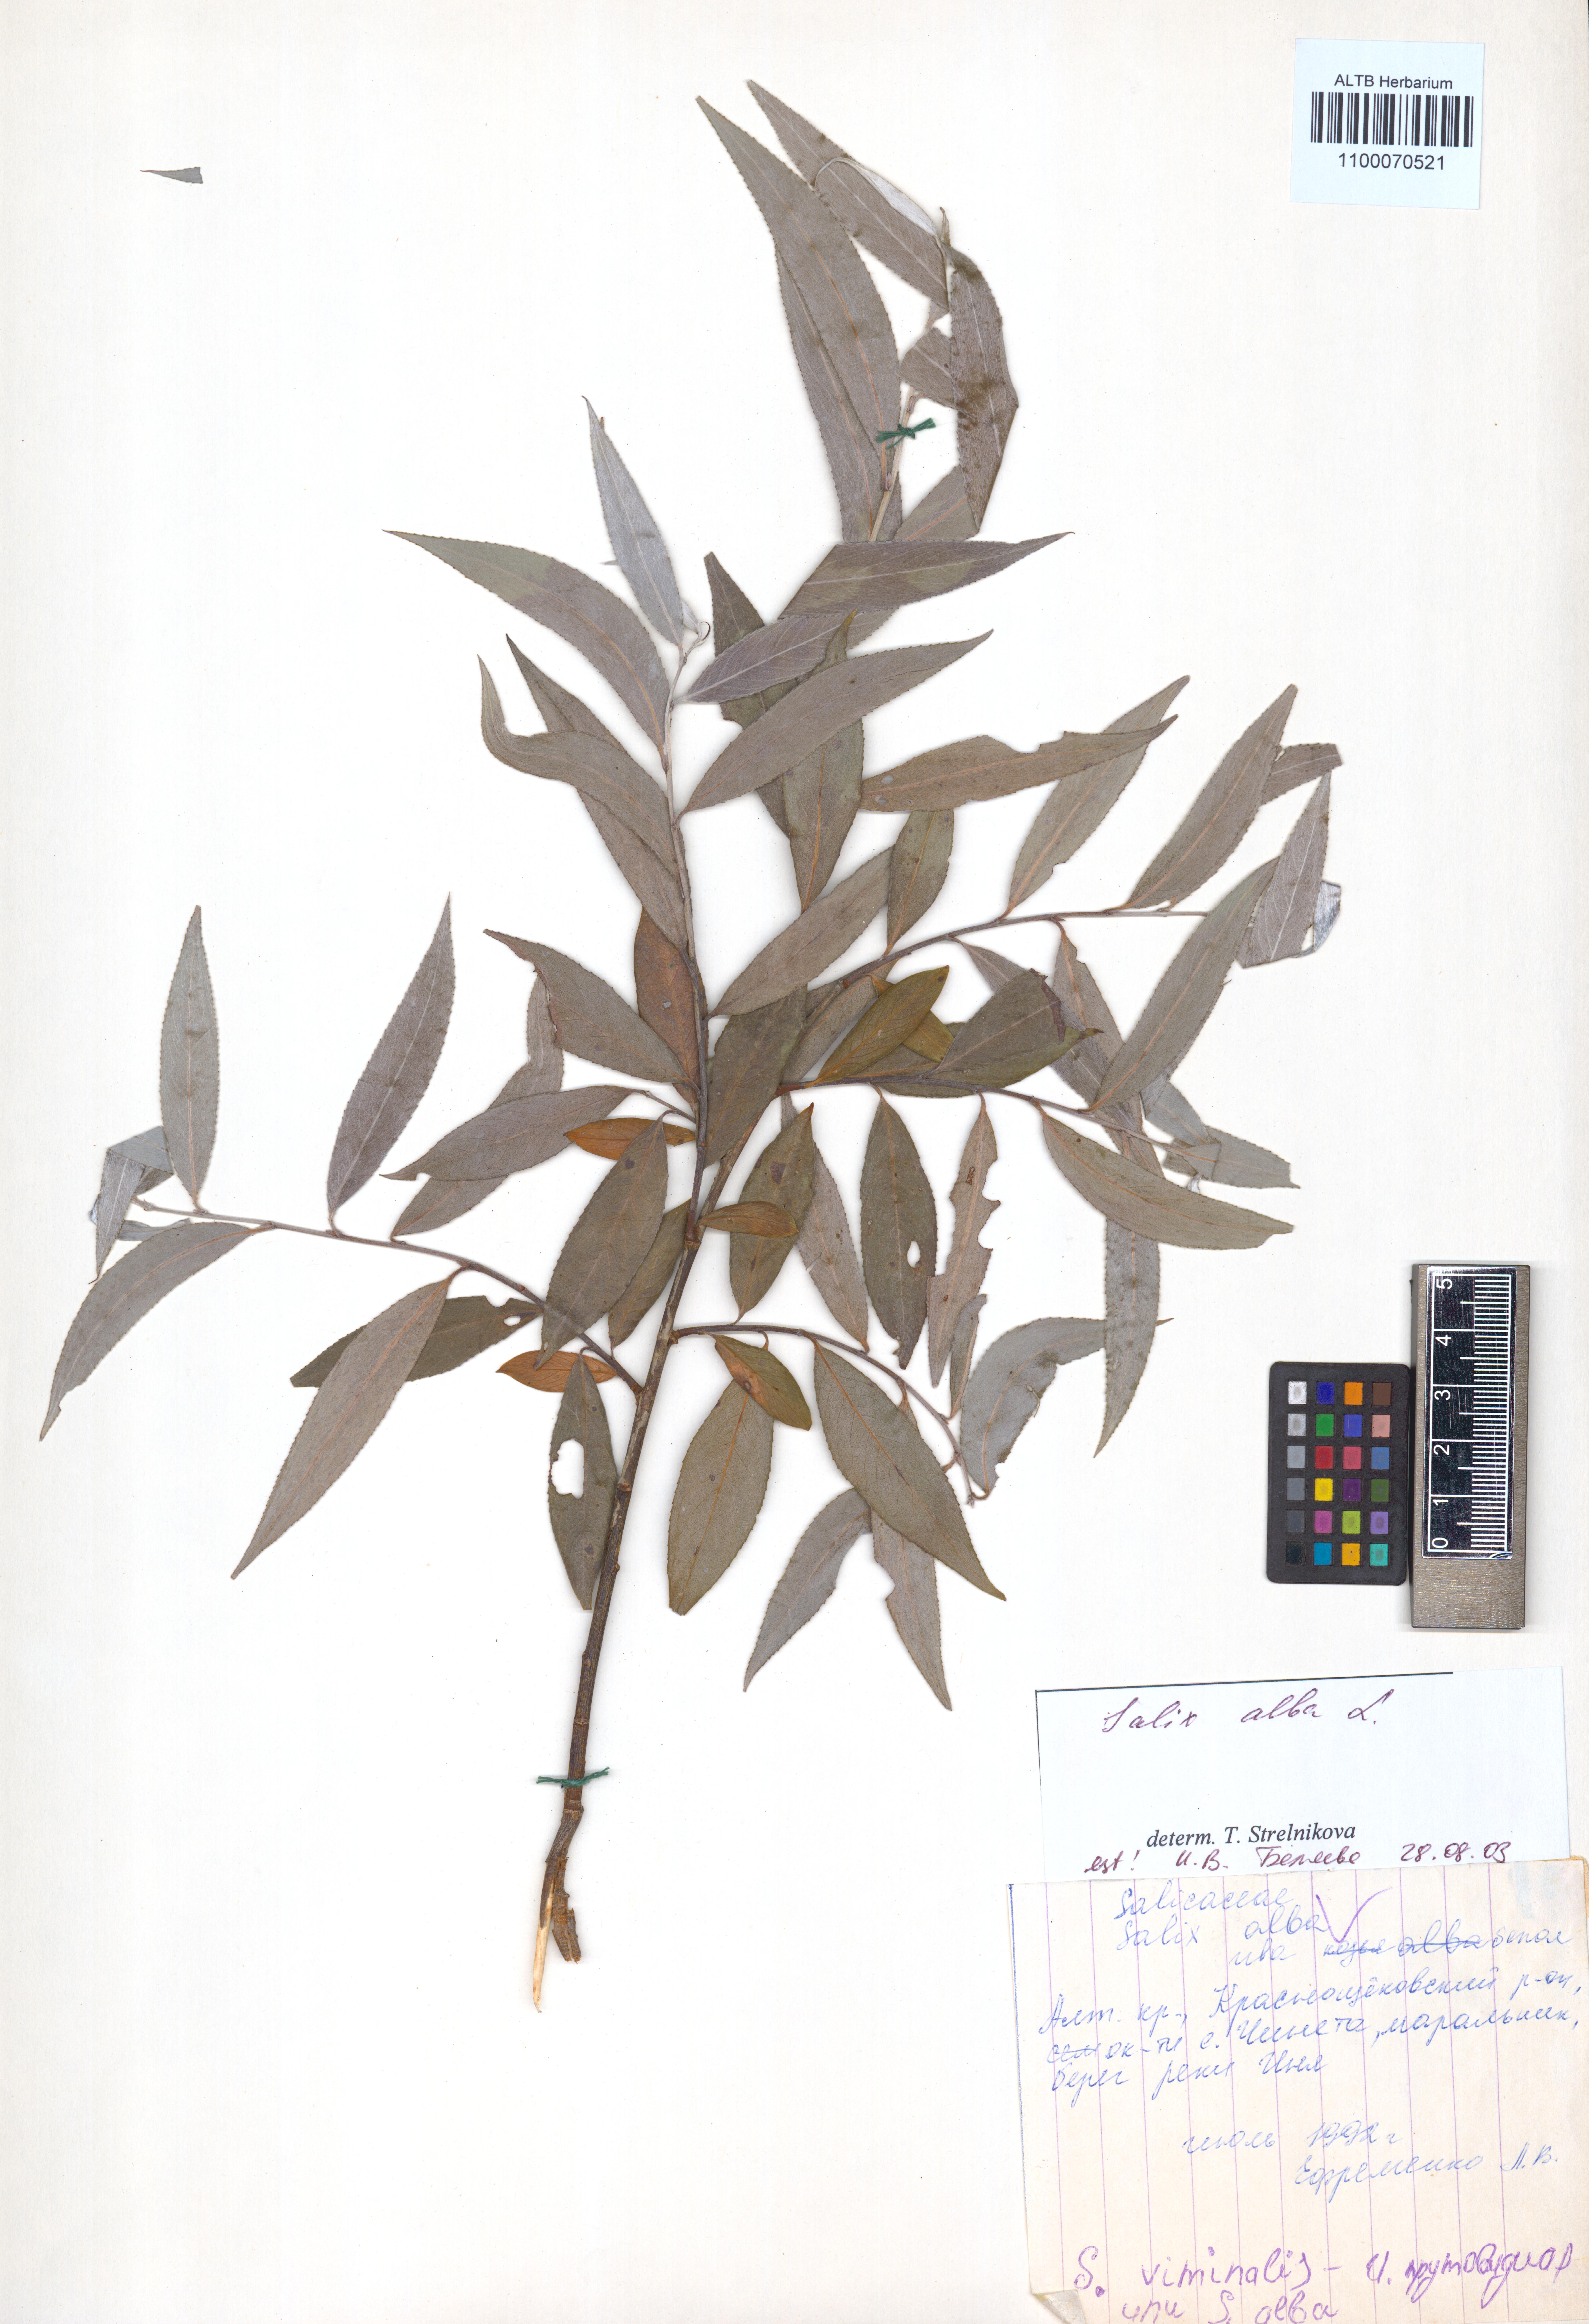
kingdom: Plantae
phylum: Tracheophyta
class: Magnoliopsida
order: Malpighiales
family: Salicaceae
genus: Salix
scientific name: Salix alba
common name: White willow
